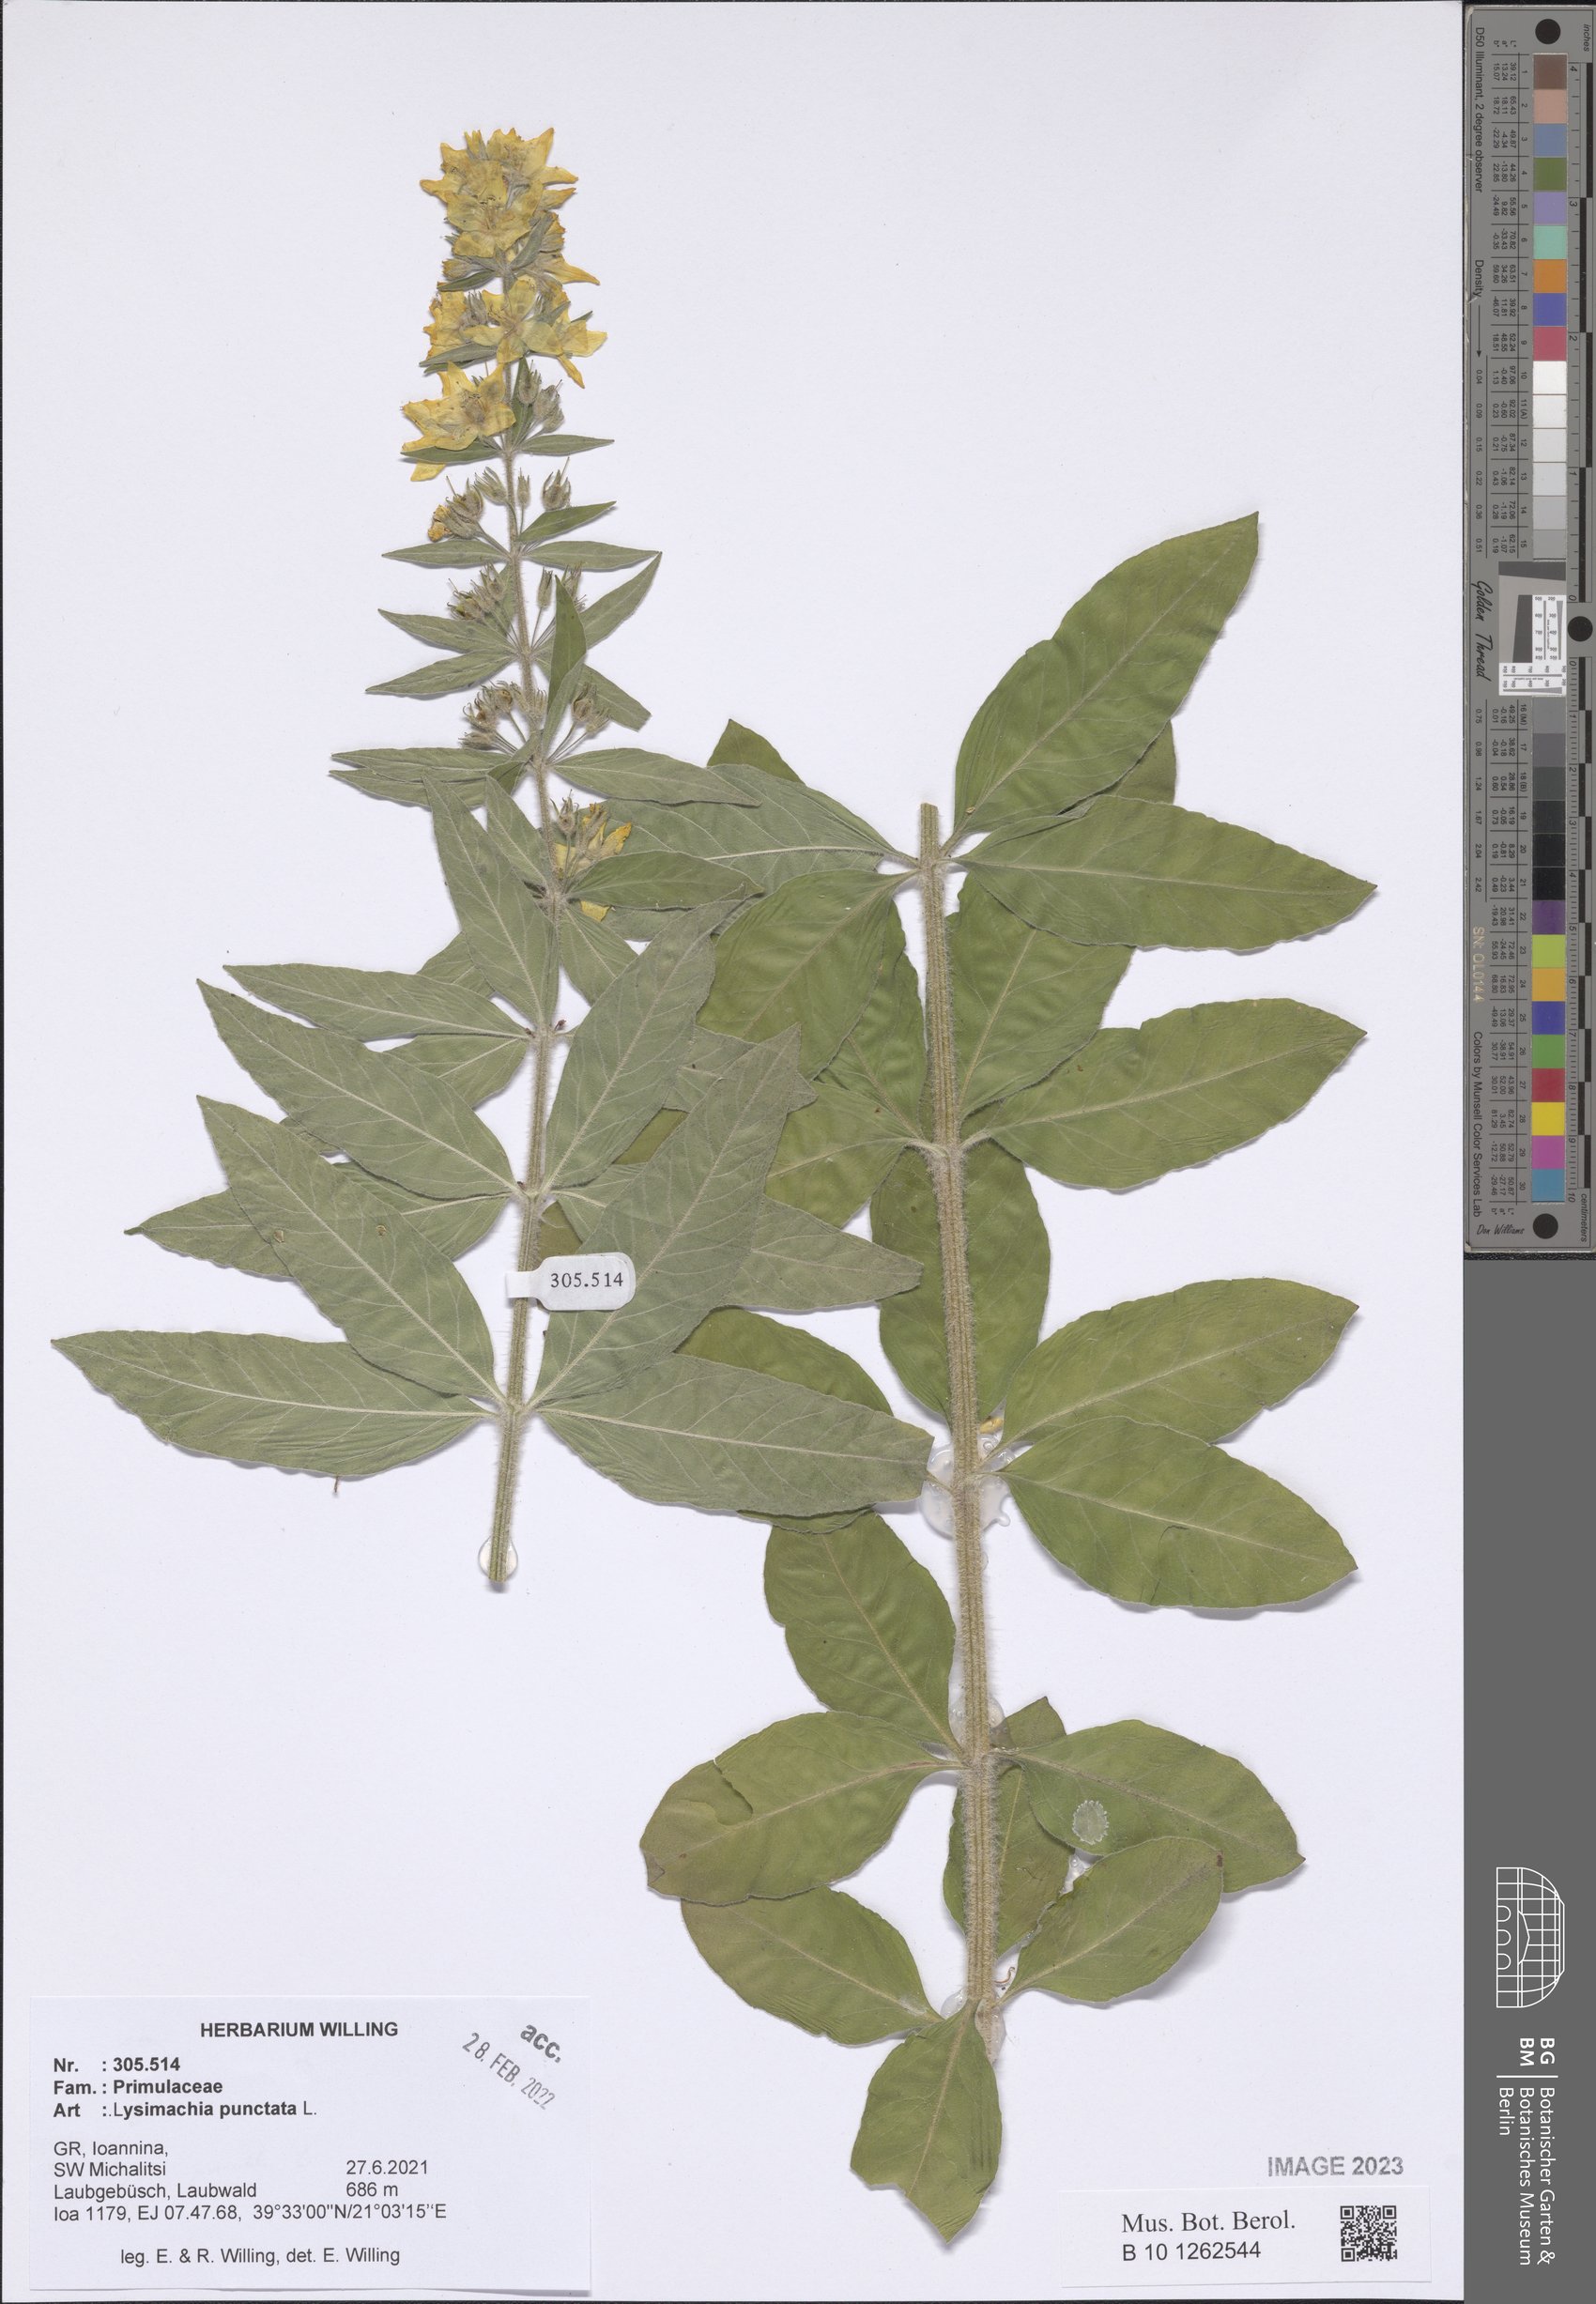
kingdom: Plantae
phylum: Tracheophyta
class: Magnoliopsida
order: Ericales
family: Primulaceae
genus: Lysimachia
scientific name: Lysimachia punctata
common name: Dotted loosestrife
